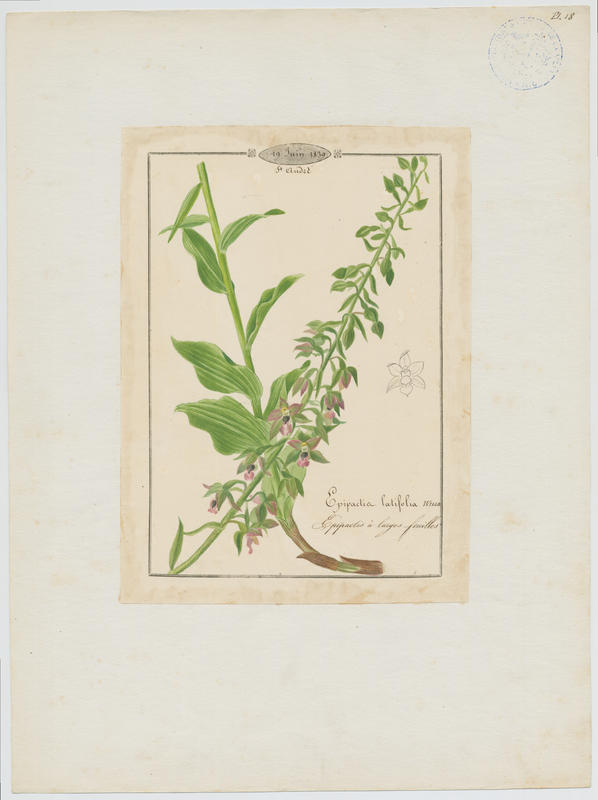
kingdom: Plantae
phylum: Tracheophyta
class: Liliopsida
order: Asparagales
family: Orchidaceae
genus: Epipactis
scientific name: Epipactis helleborine
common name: Broad-leaved helleborine
